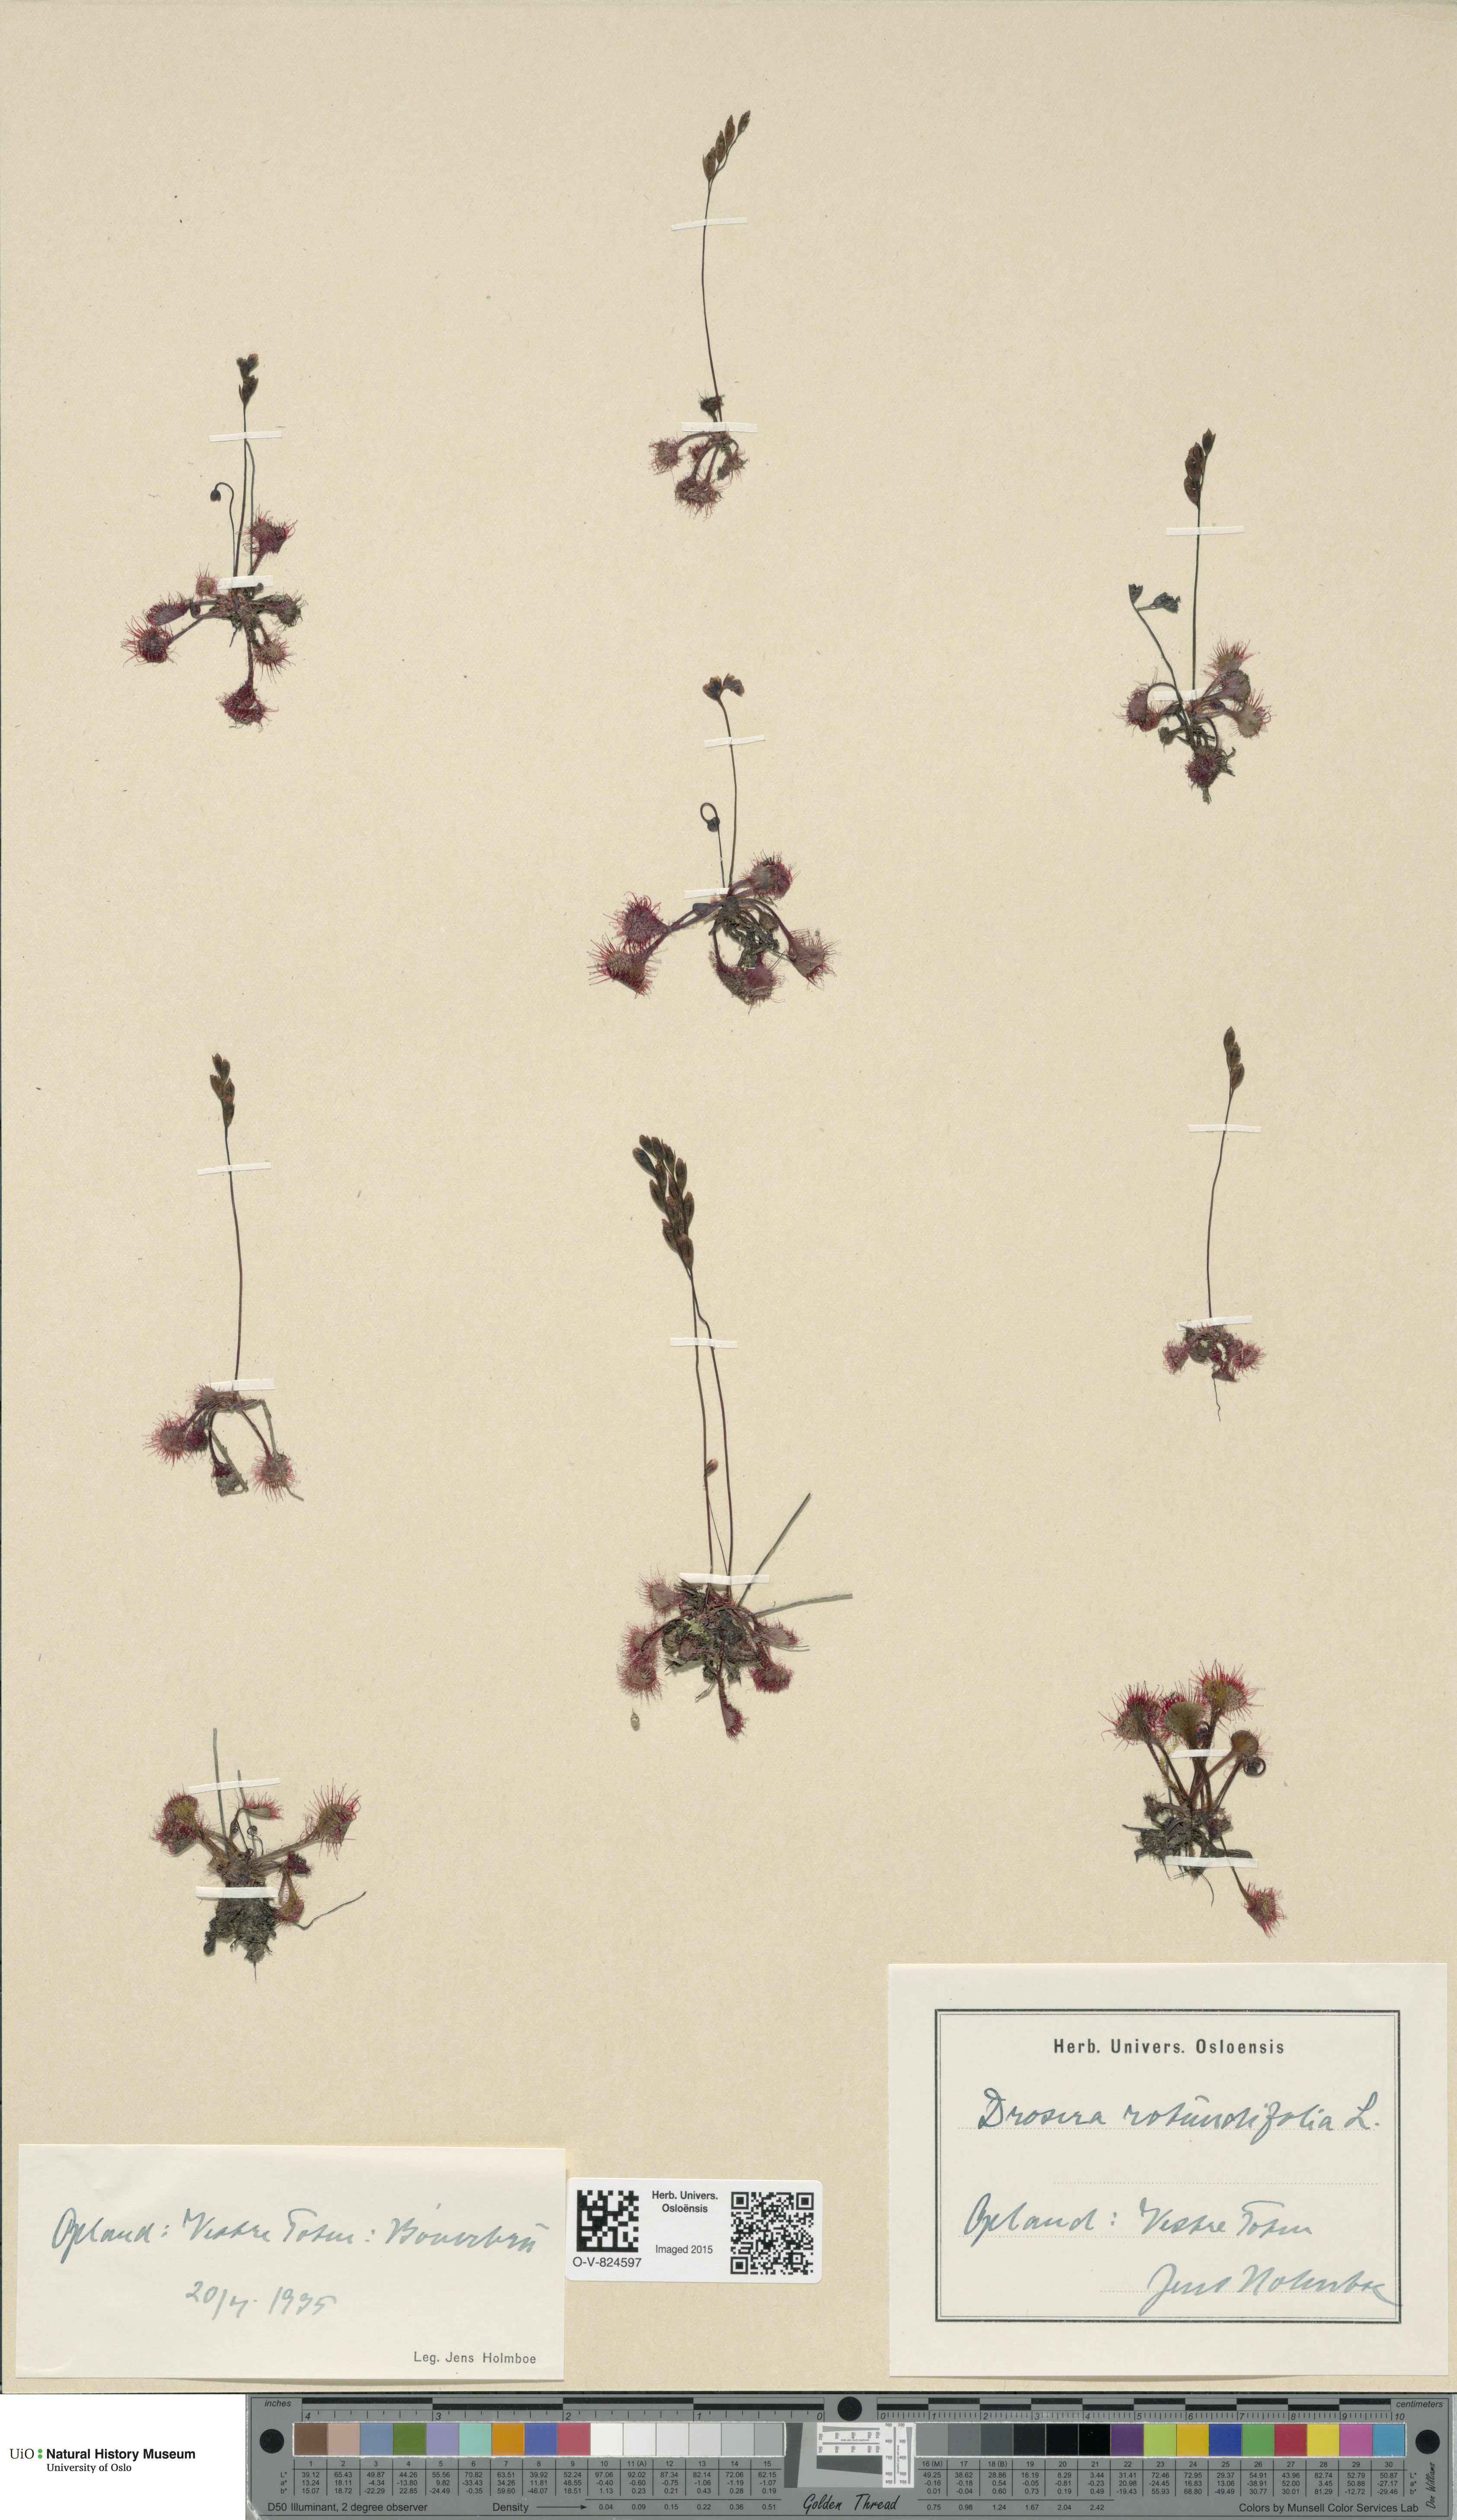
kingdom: Plantae
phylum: Tracheophyta
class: Magnoliopsida
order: Caryophyllales
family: Droseraceae
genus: Drosera
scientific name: Drosera rotundifolia
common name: Round-leaved sundew
